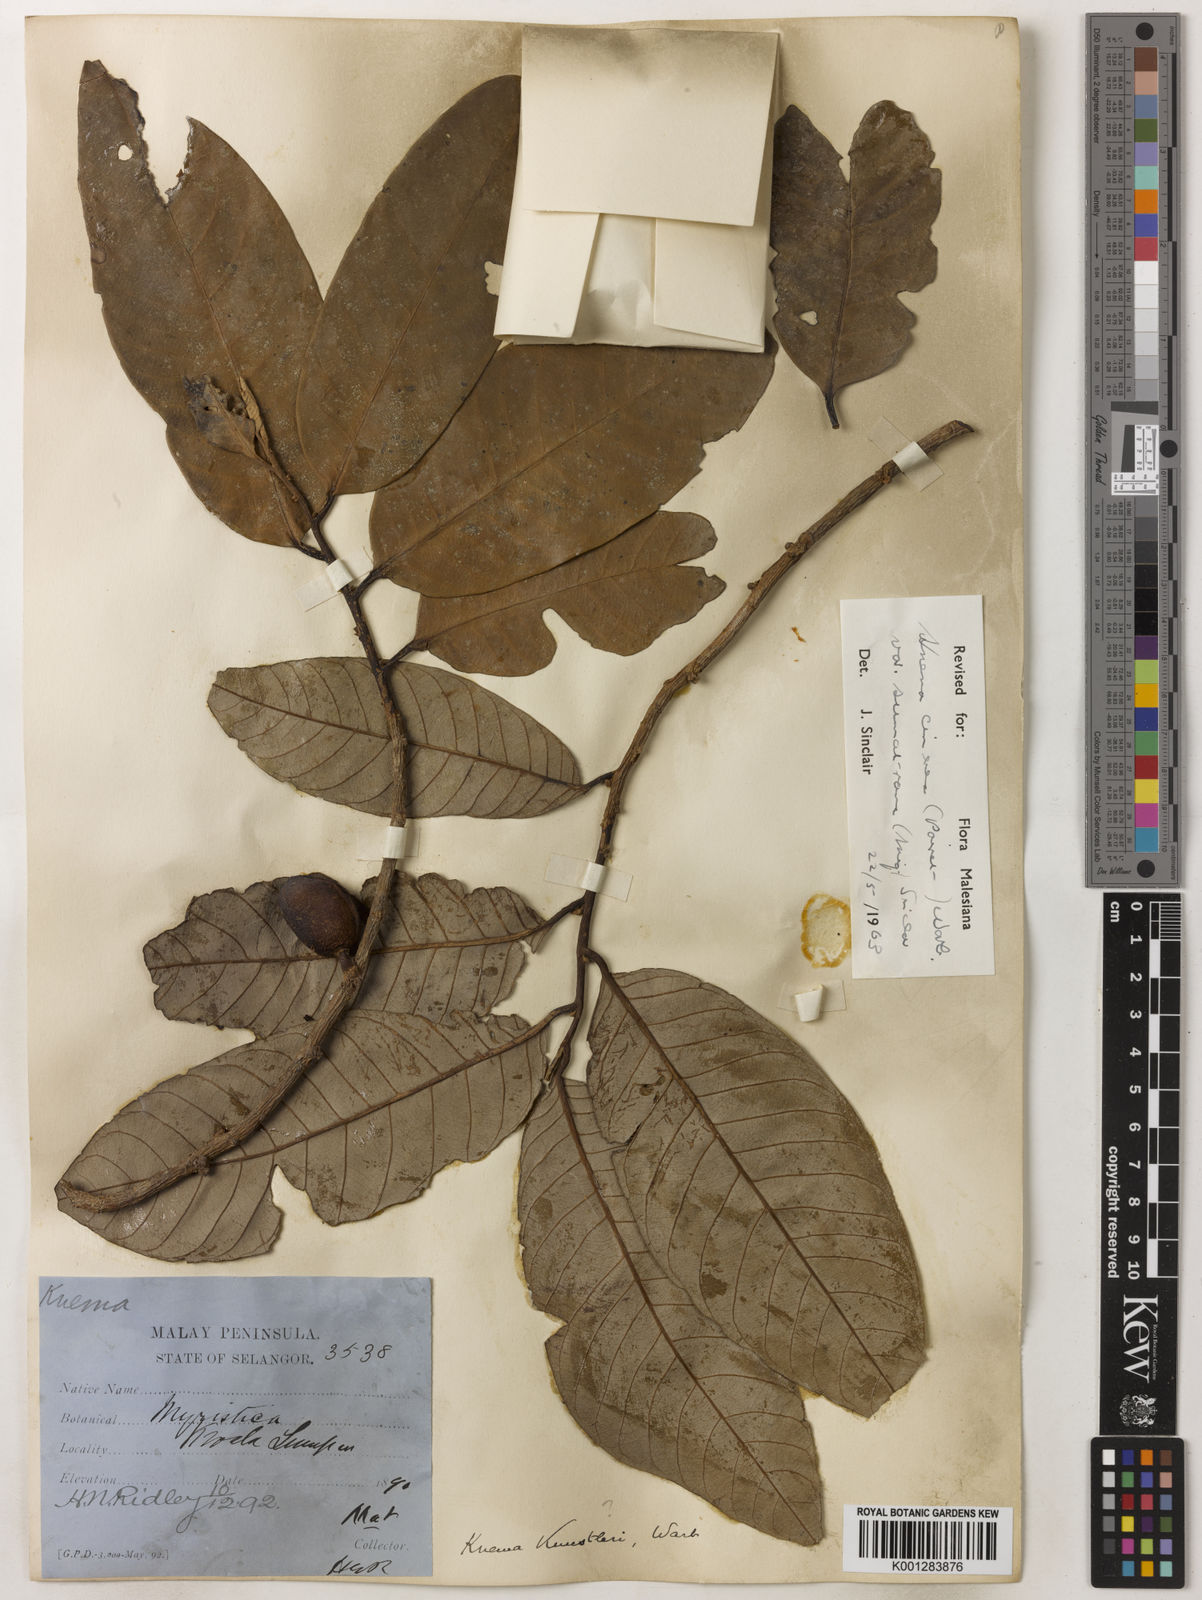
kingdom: Plantae
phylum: Tracheophyta
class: Magnoliopsida
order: Magnoliales
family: Myristicaceae
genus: Knema
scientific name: Knema
